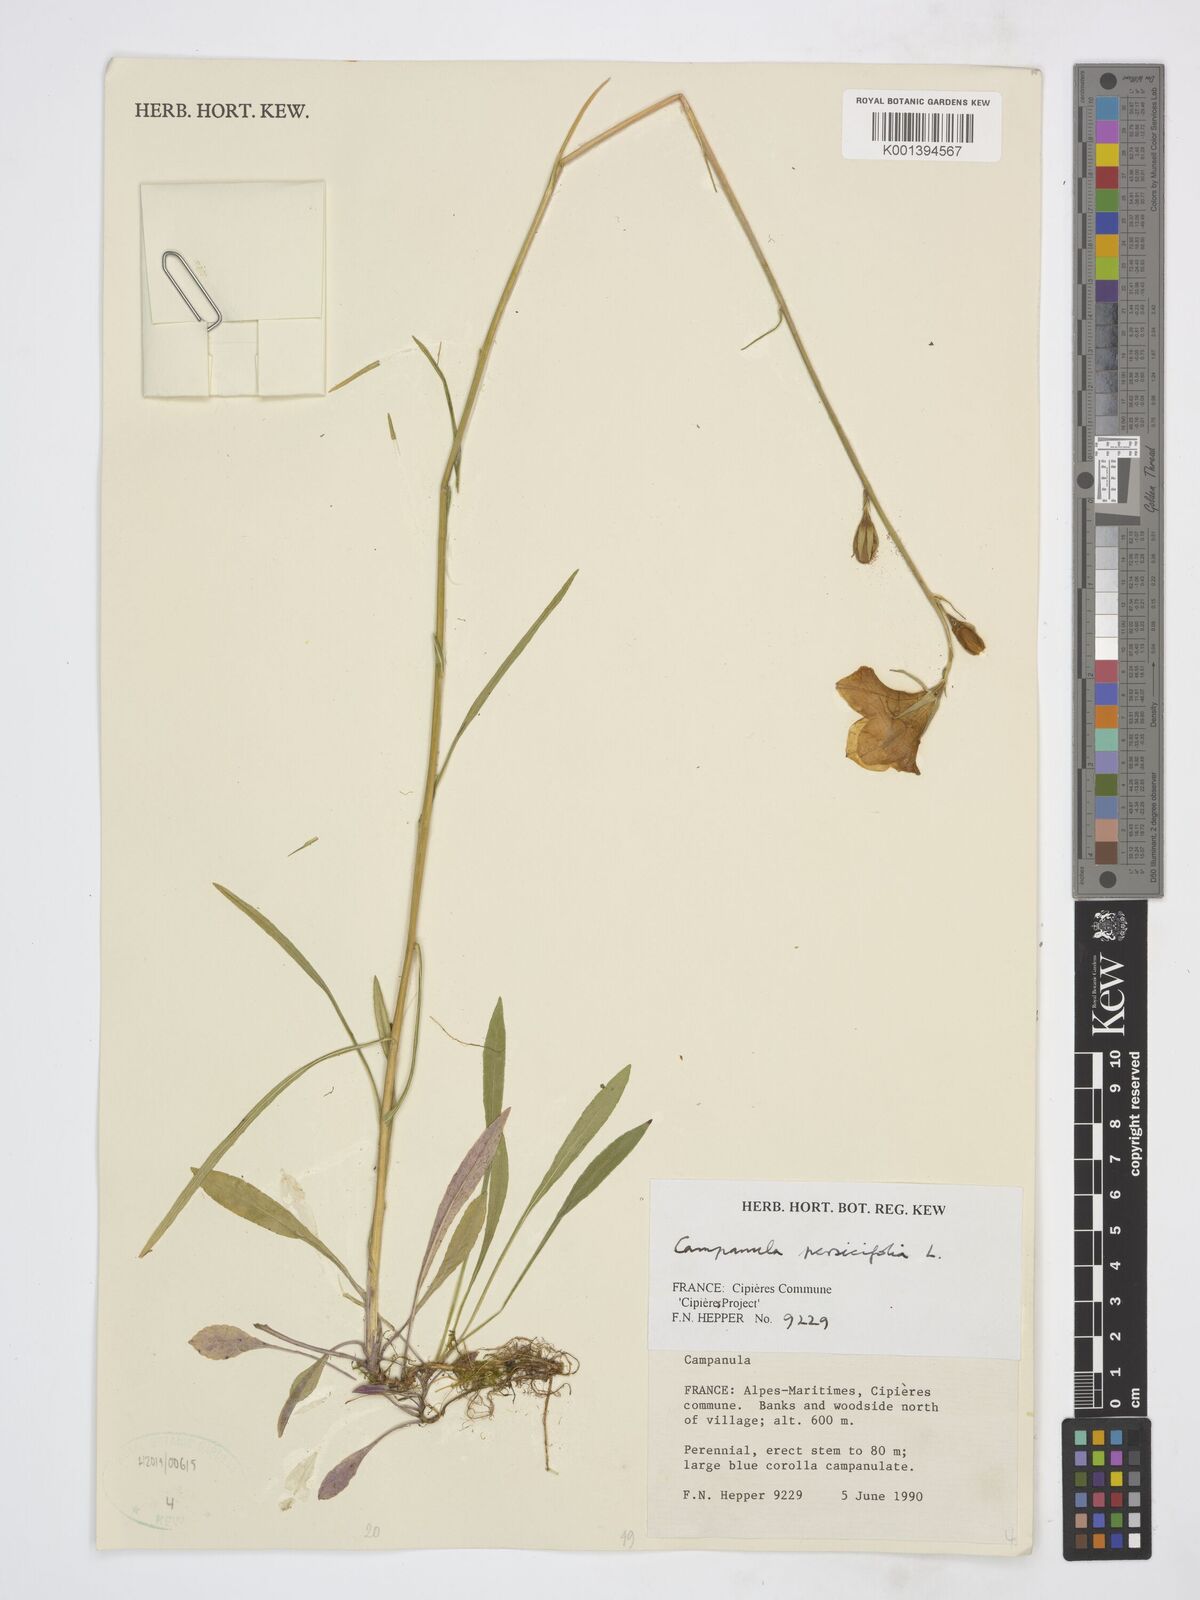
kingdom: Plantae
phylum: Tracheophyta
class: Magnoliopsida
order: Asterales
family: Campanulaceae
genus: Campanula
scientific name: Campanula persicifolia
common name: Peach-leaved bellflower
